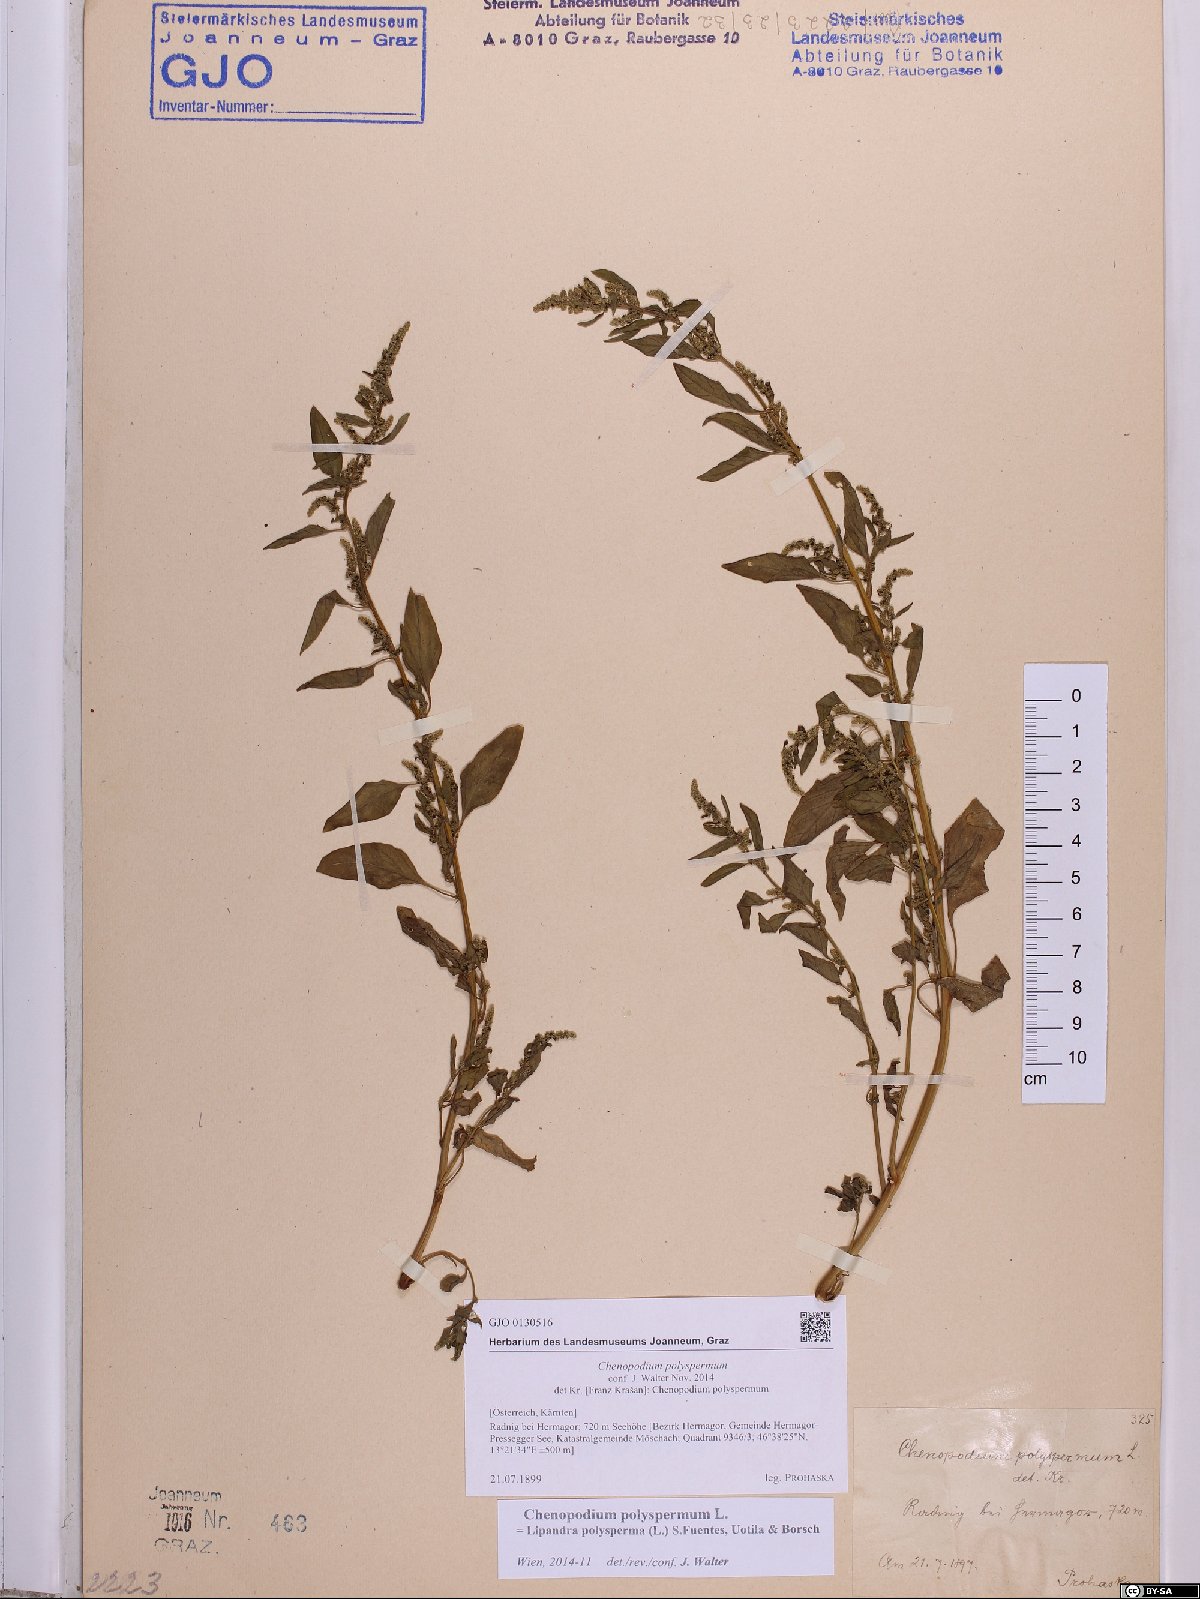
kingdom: Plantae
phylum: Tracheophyta
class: Magnoliopsida
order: Caryophyllales
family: Amaranthaceae
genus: Lipandra
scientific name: Lipandra polysperma
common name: Many-seed goosefoot
